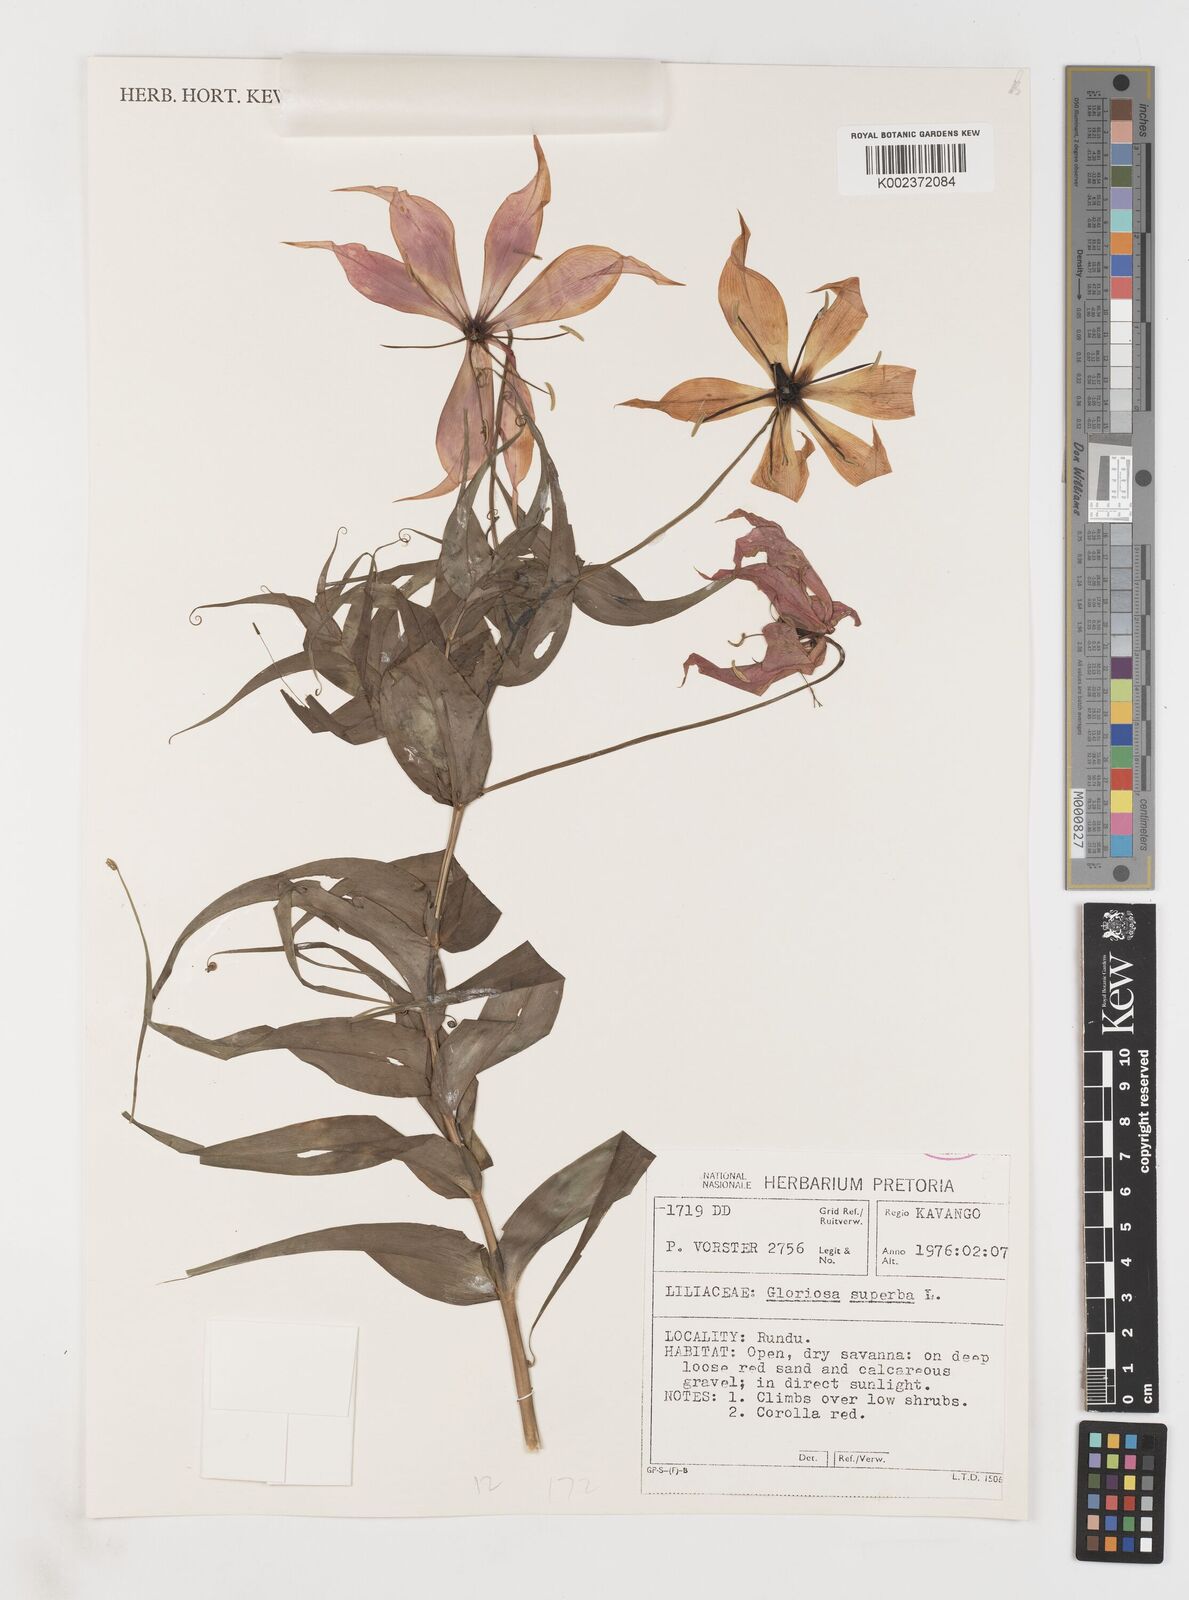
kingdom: Plantae
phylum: Tracheophyta
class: Liliopsida
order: Liliales
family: Colchicaceae
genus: Gloriosa
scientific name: Gloriosa simplex
